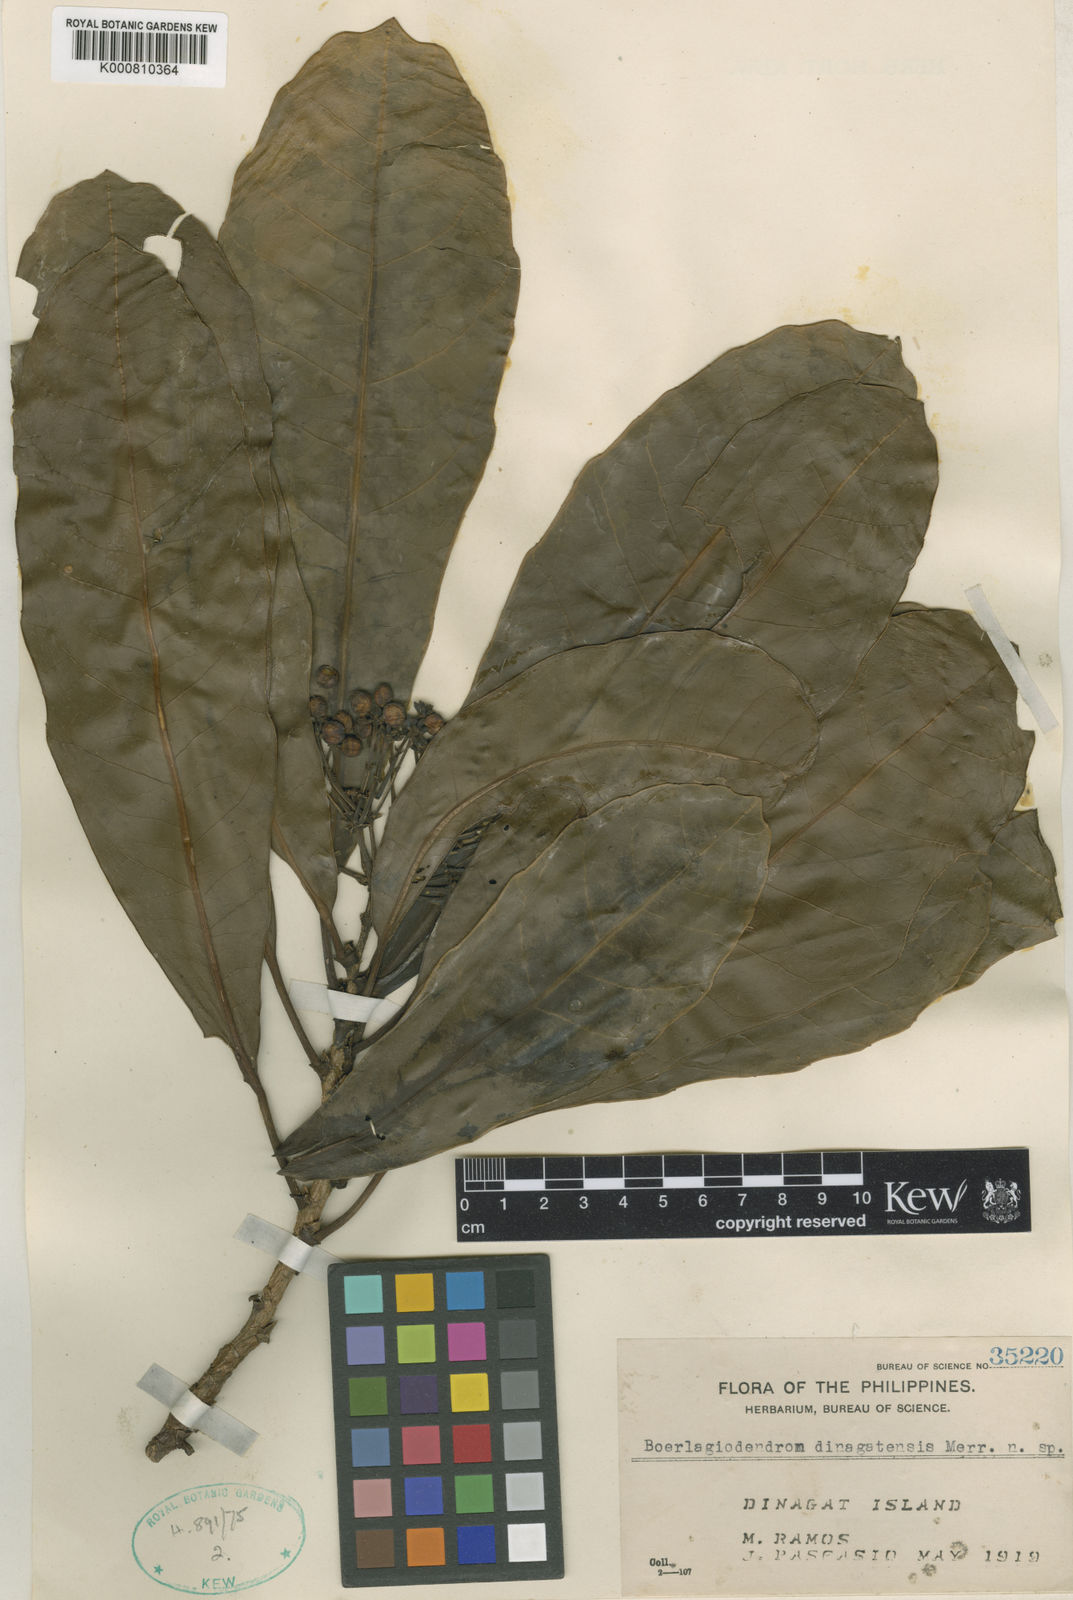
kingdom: Plantae
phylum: Tracheophyta
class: Magnoliopsida
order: Apiales
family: Araliaceae
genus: Osmoxylon
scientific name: Osmoxylon dinagatense
